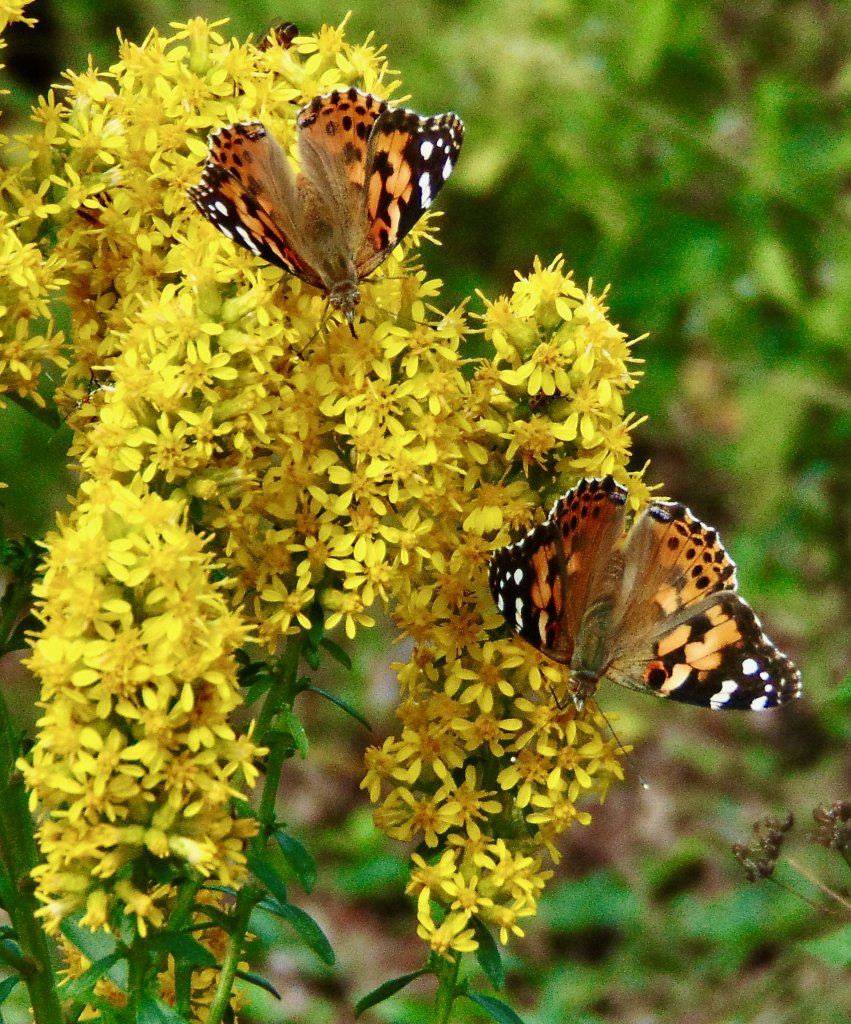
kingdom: Animalia
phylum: Arthropoda
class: Insecta
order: Lepidoptera
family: Nymphalidae
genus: Vanessa
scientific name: Vanessa cardui
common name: Painted Lady
